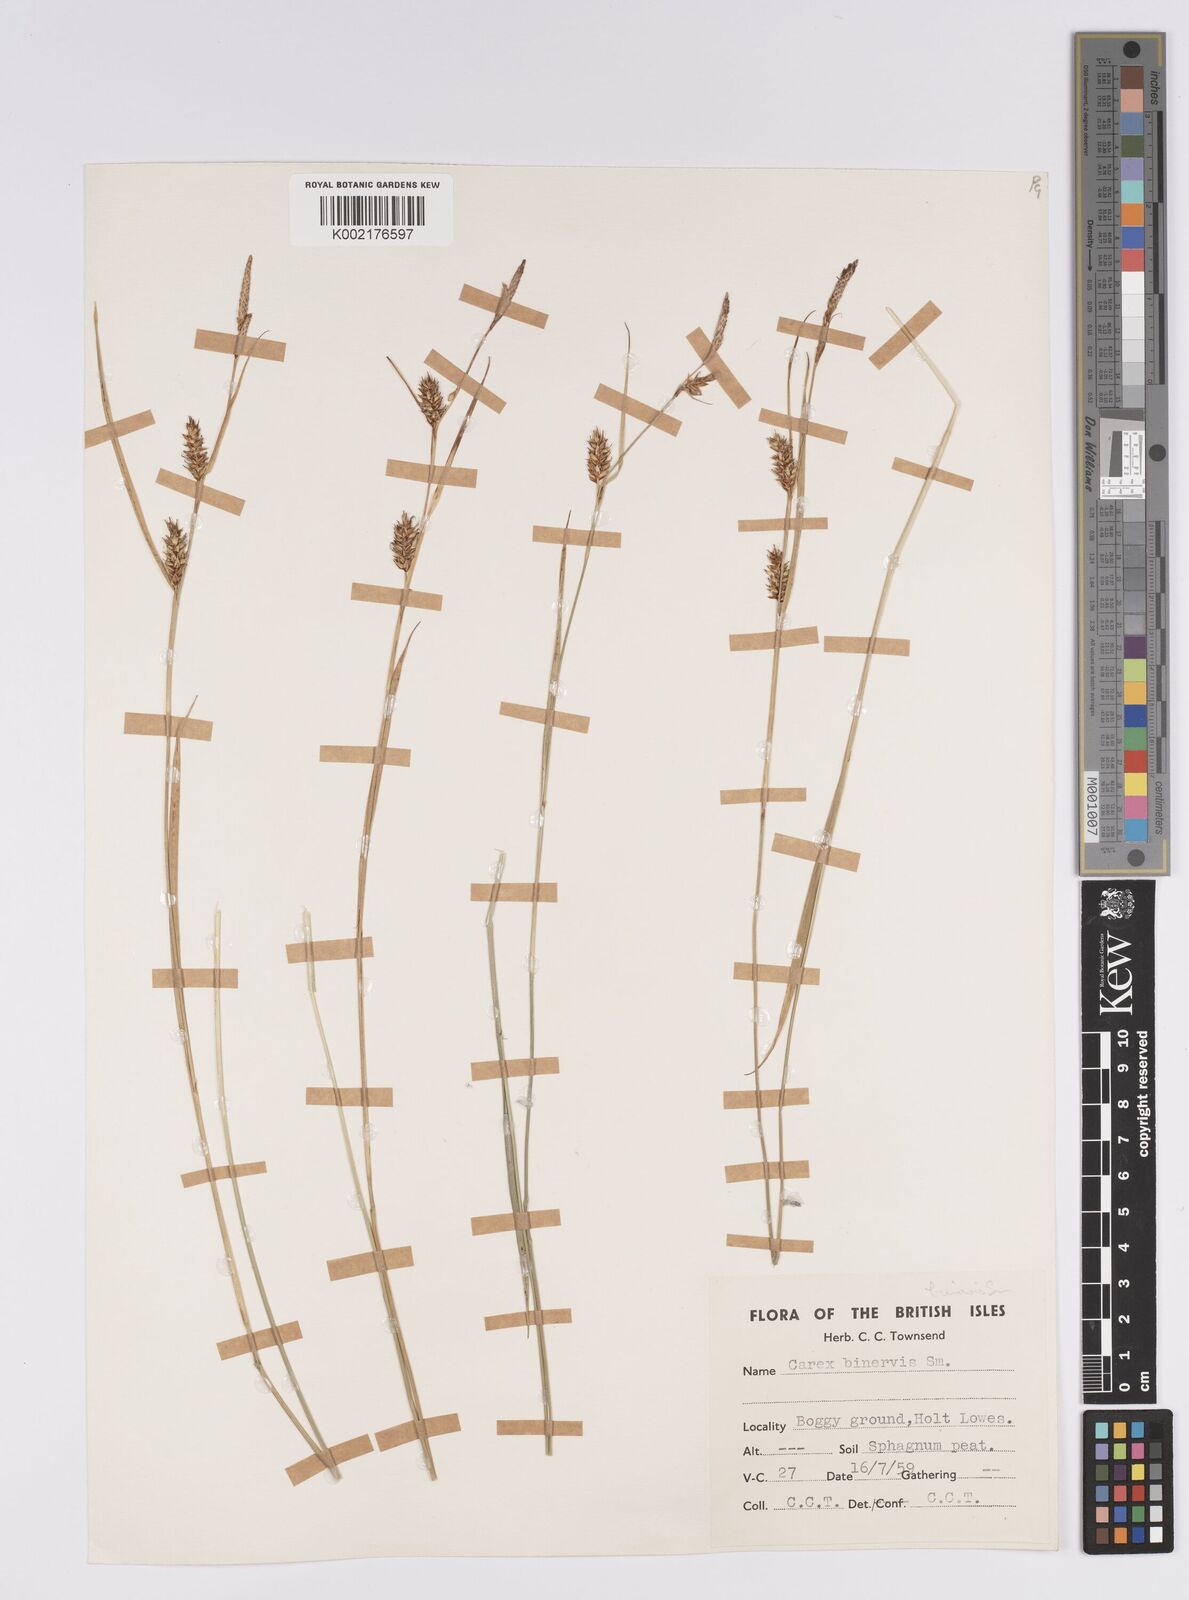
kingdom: Plantae
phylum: Tracheophyta
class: Liliopsida
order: Poales
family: Cyperaceae
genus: Carex
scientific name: Carex binervis
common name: Green-ribbed sedge
